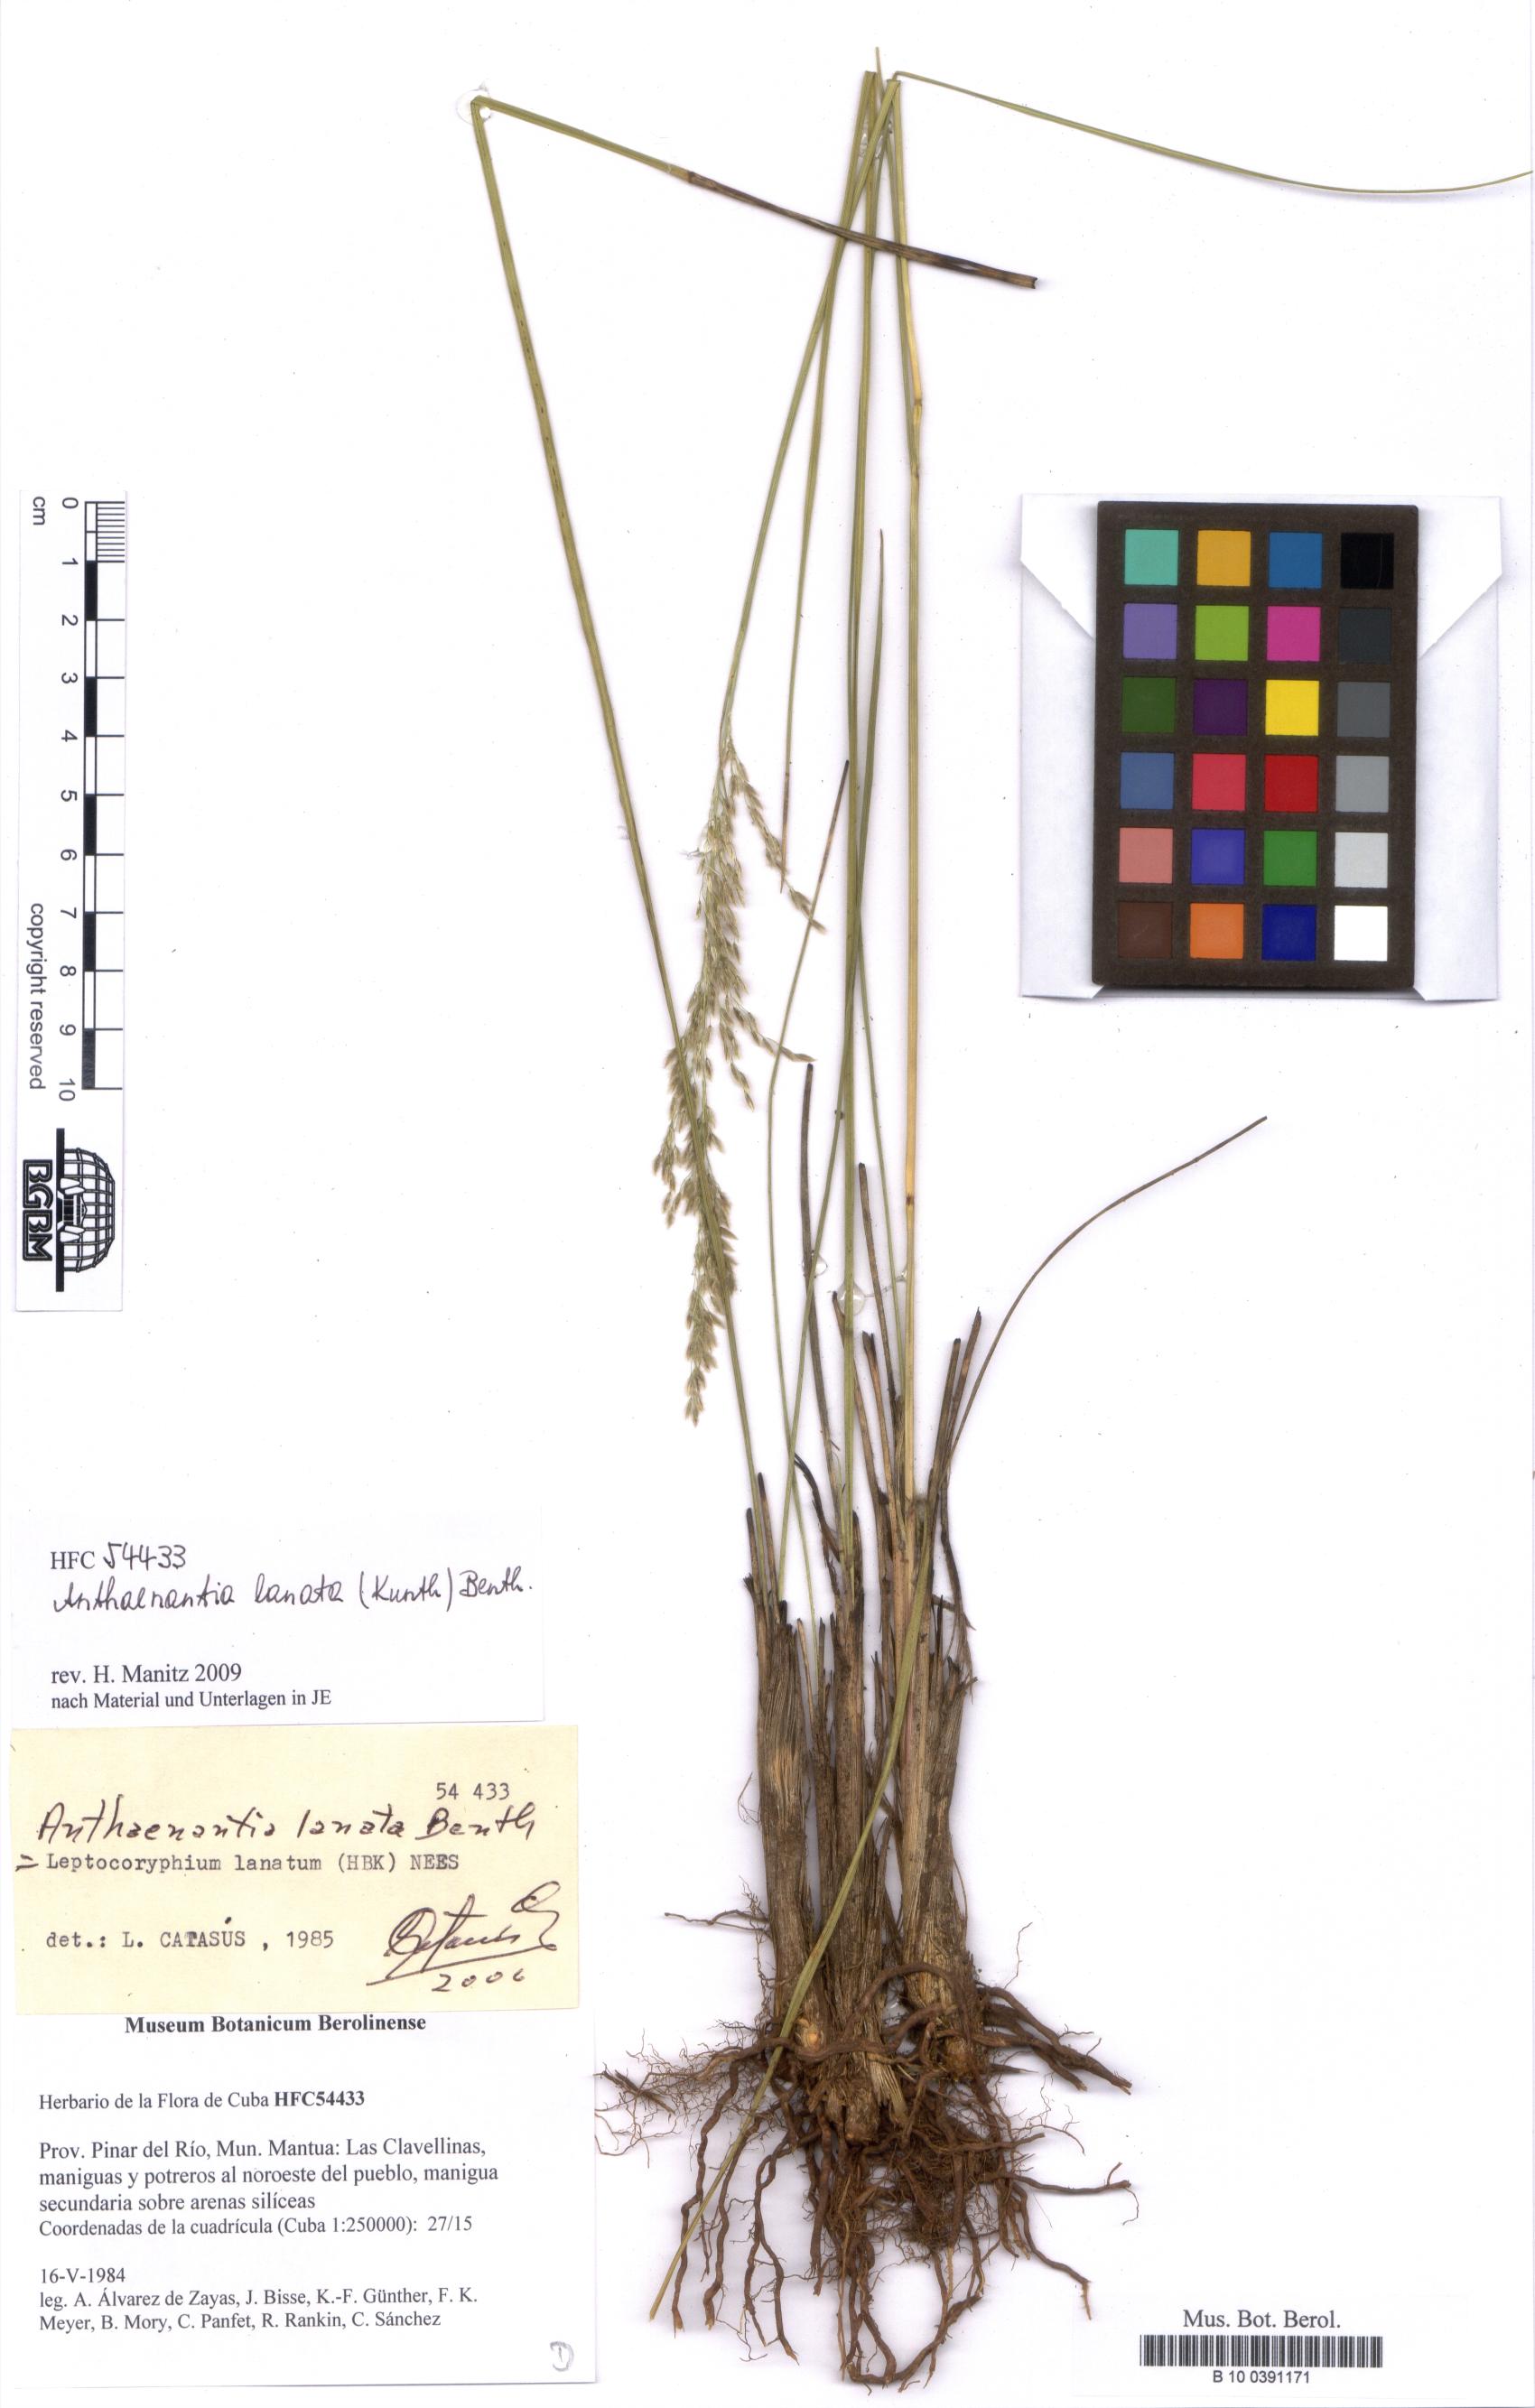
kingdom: Plantae
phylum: Tracheophyta
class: Liliopsida
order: Poales
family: Poaceae
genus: Anthaenantia
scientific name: Anthaenantia lanata
